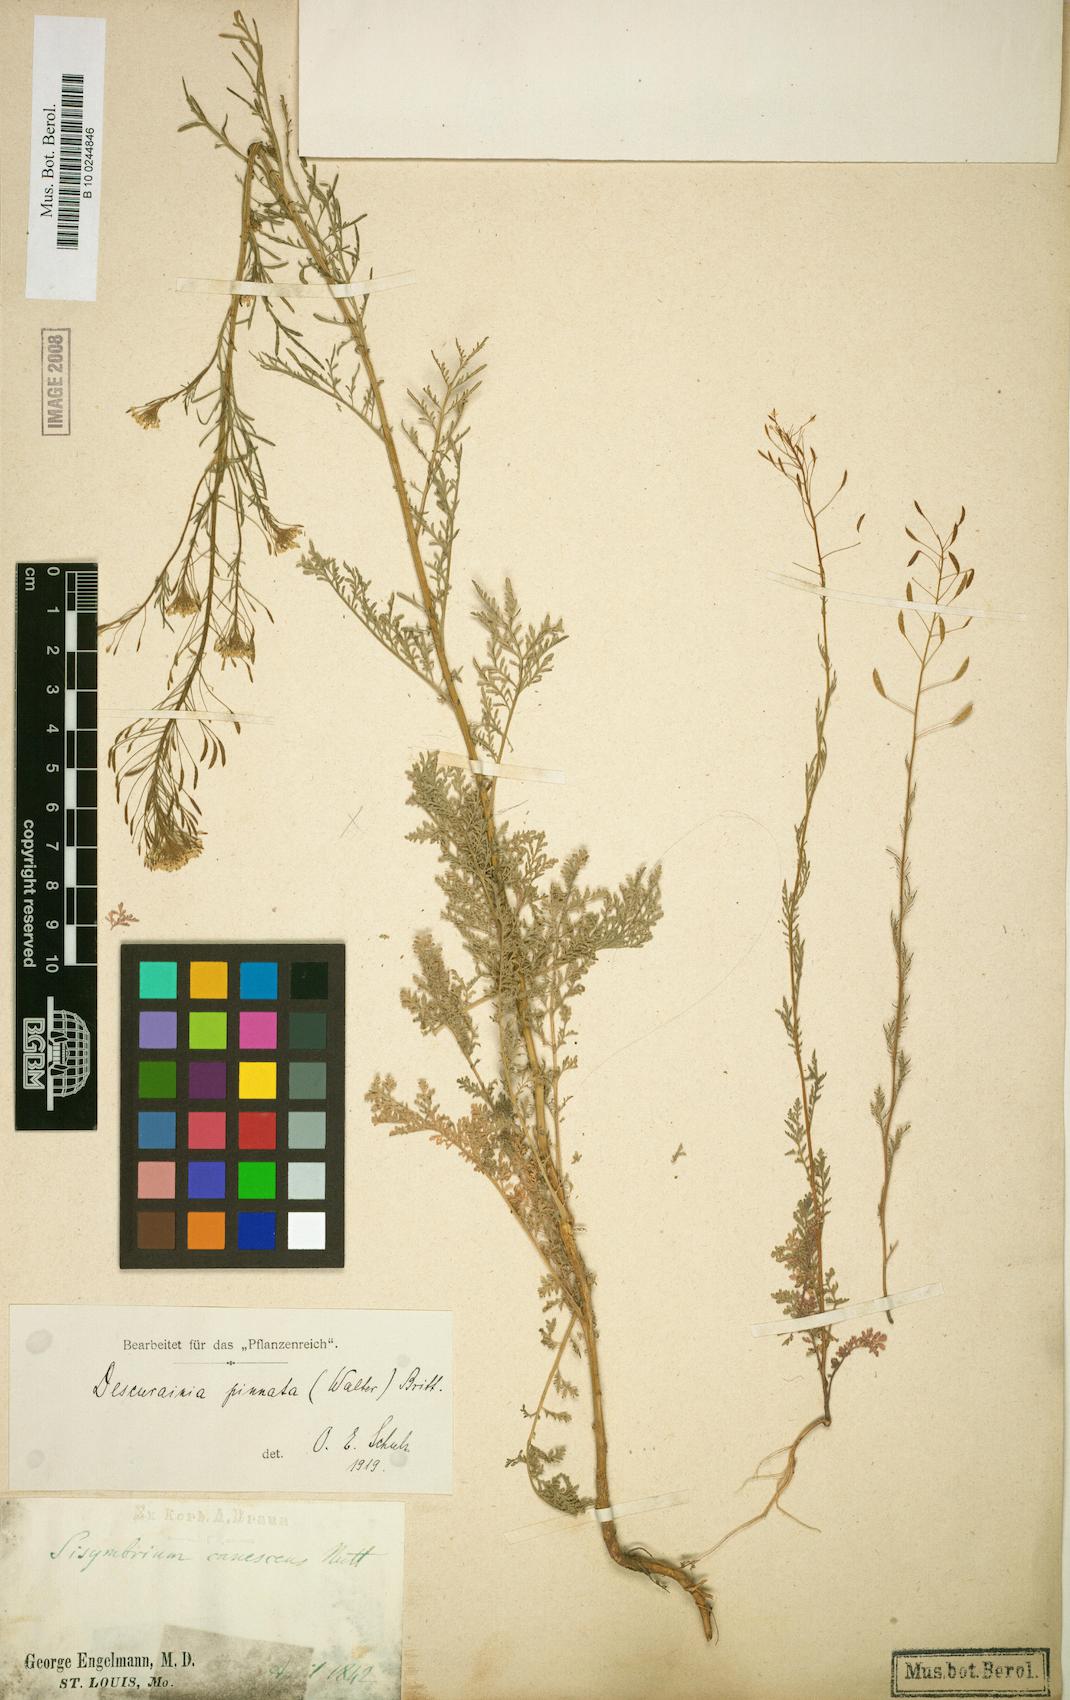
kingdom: Plantae
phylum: Tracheophyta
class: Magnoliopsida
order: Brassicales
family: Brassicaceae
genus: Descurainia
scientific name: Descurainia pinnata
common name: Western tansy mustard
